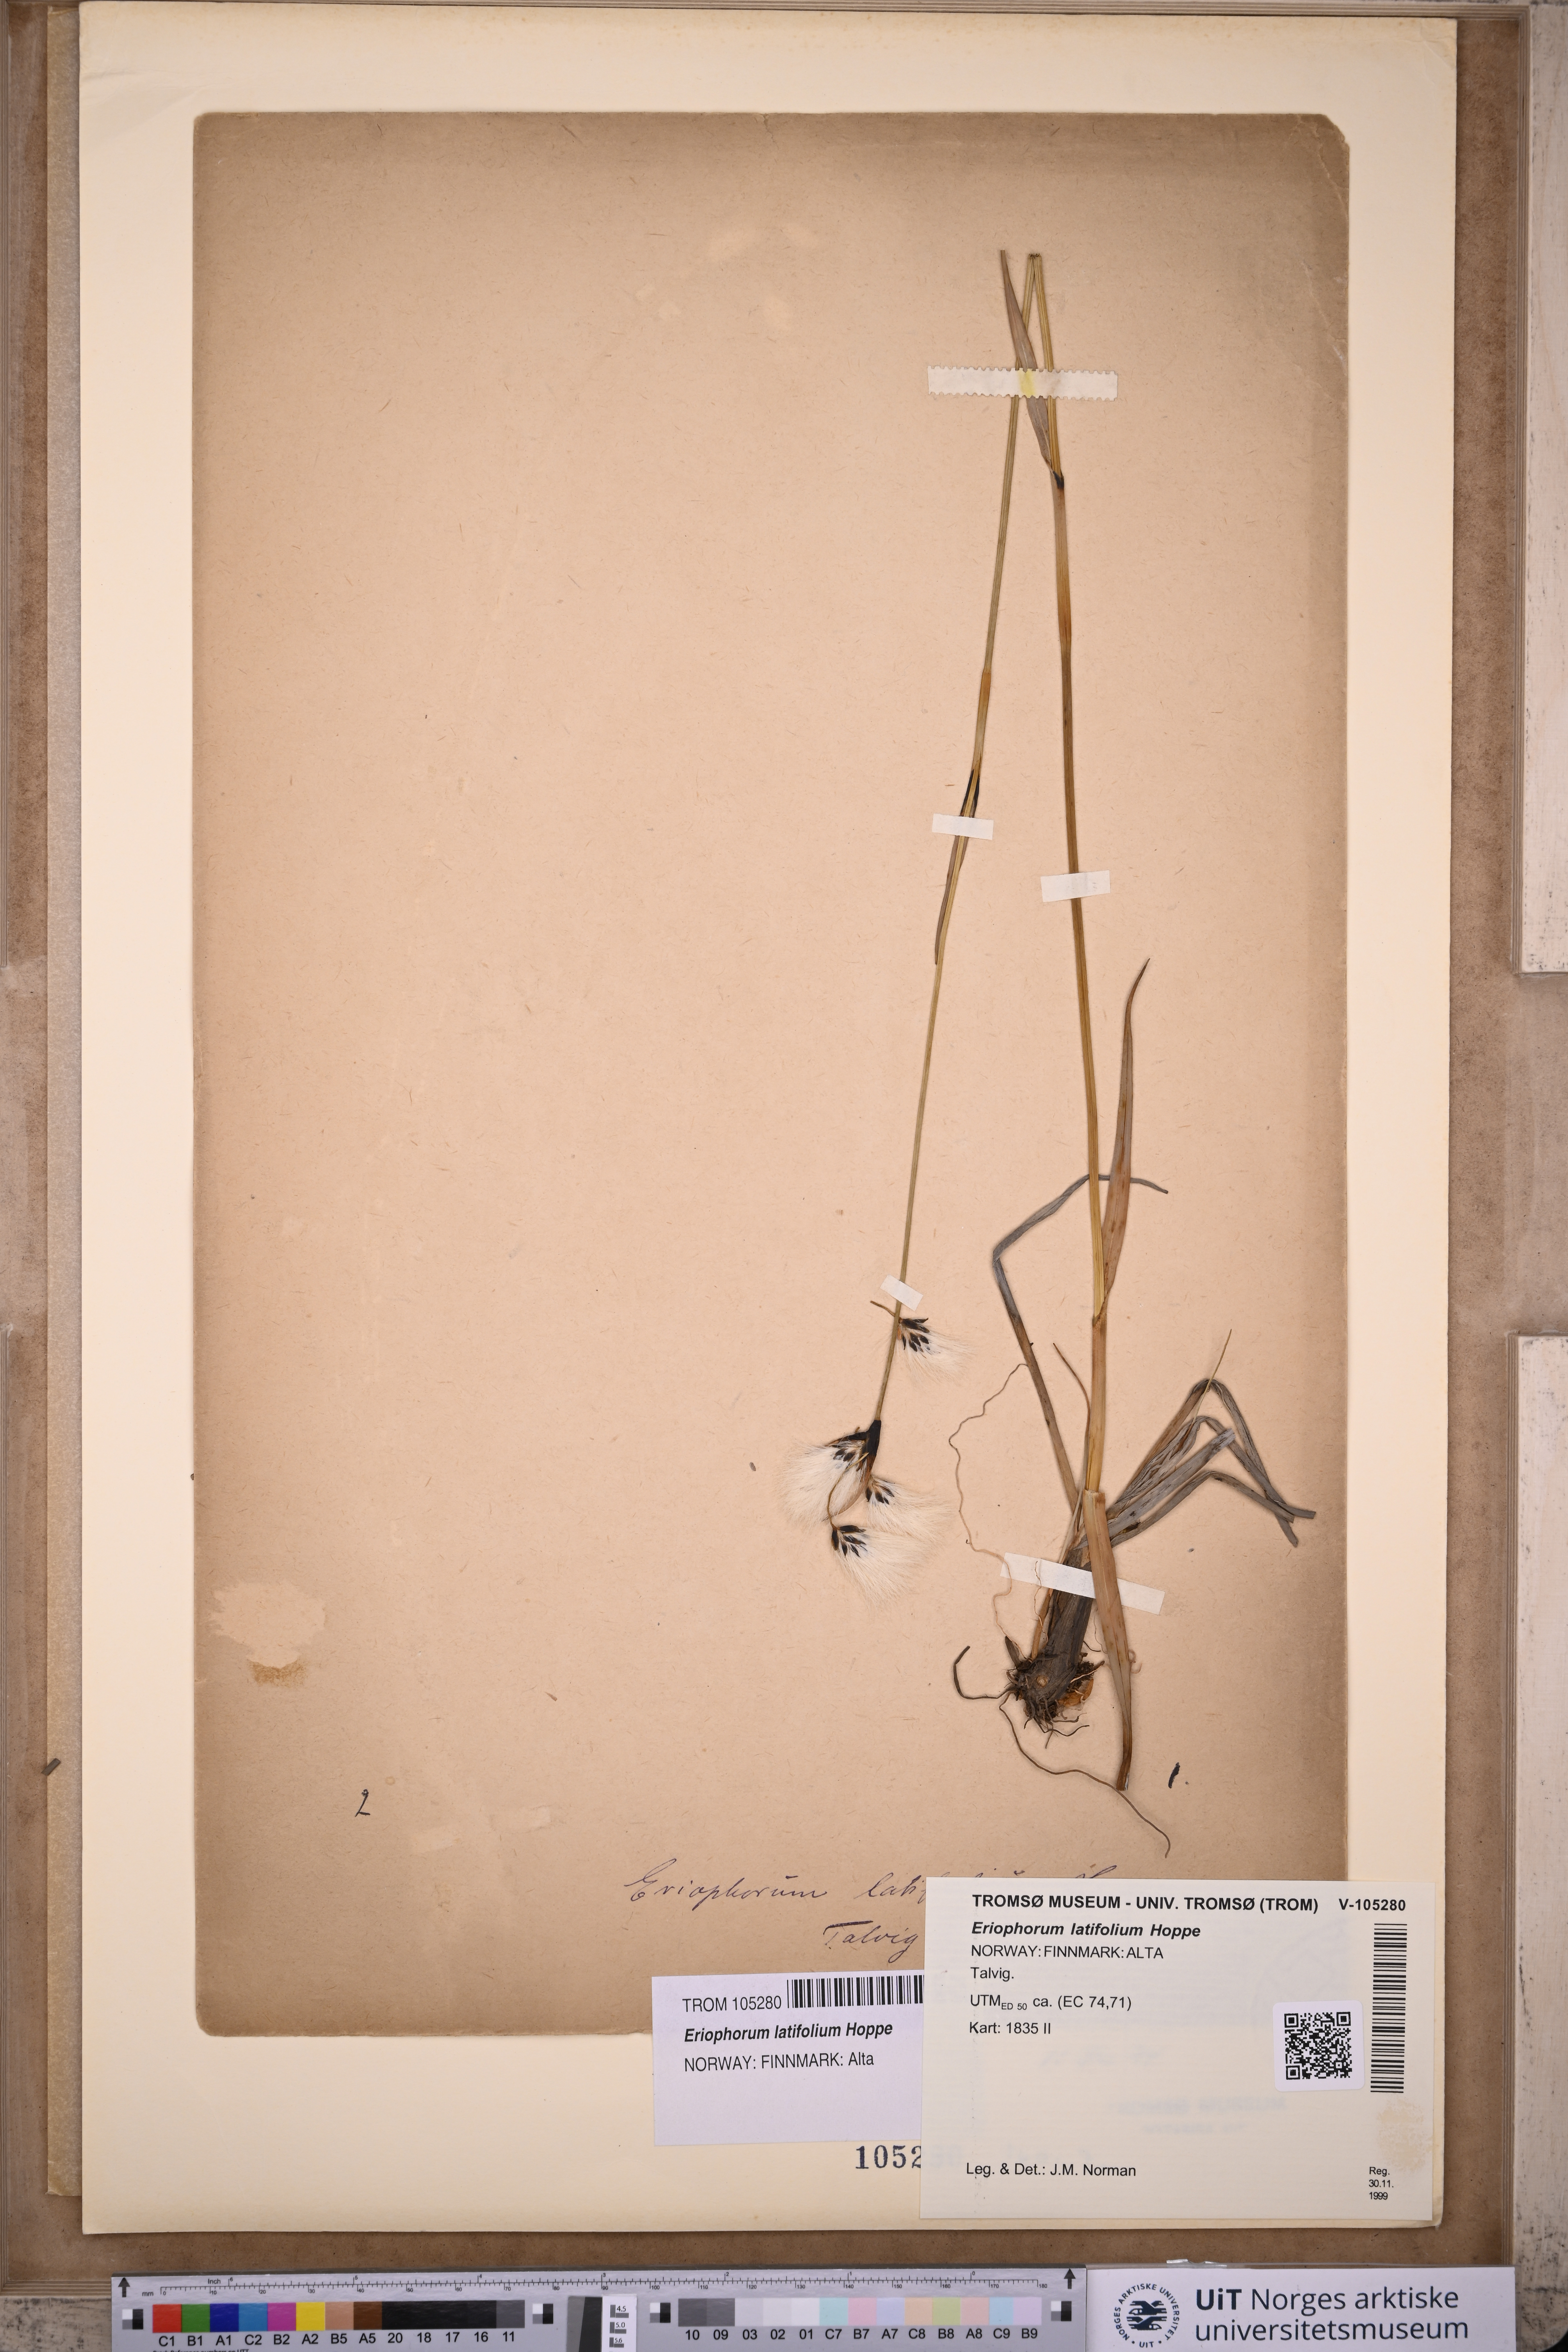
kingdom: Plantae
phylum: Tracheophyta
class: Liliopsida
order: Poales
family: Cyperaceae
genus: Eriophorum
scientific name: Eriophorum latifolium
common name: Broad-leaved cottongrass
